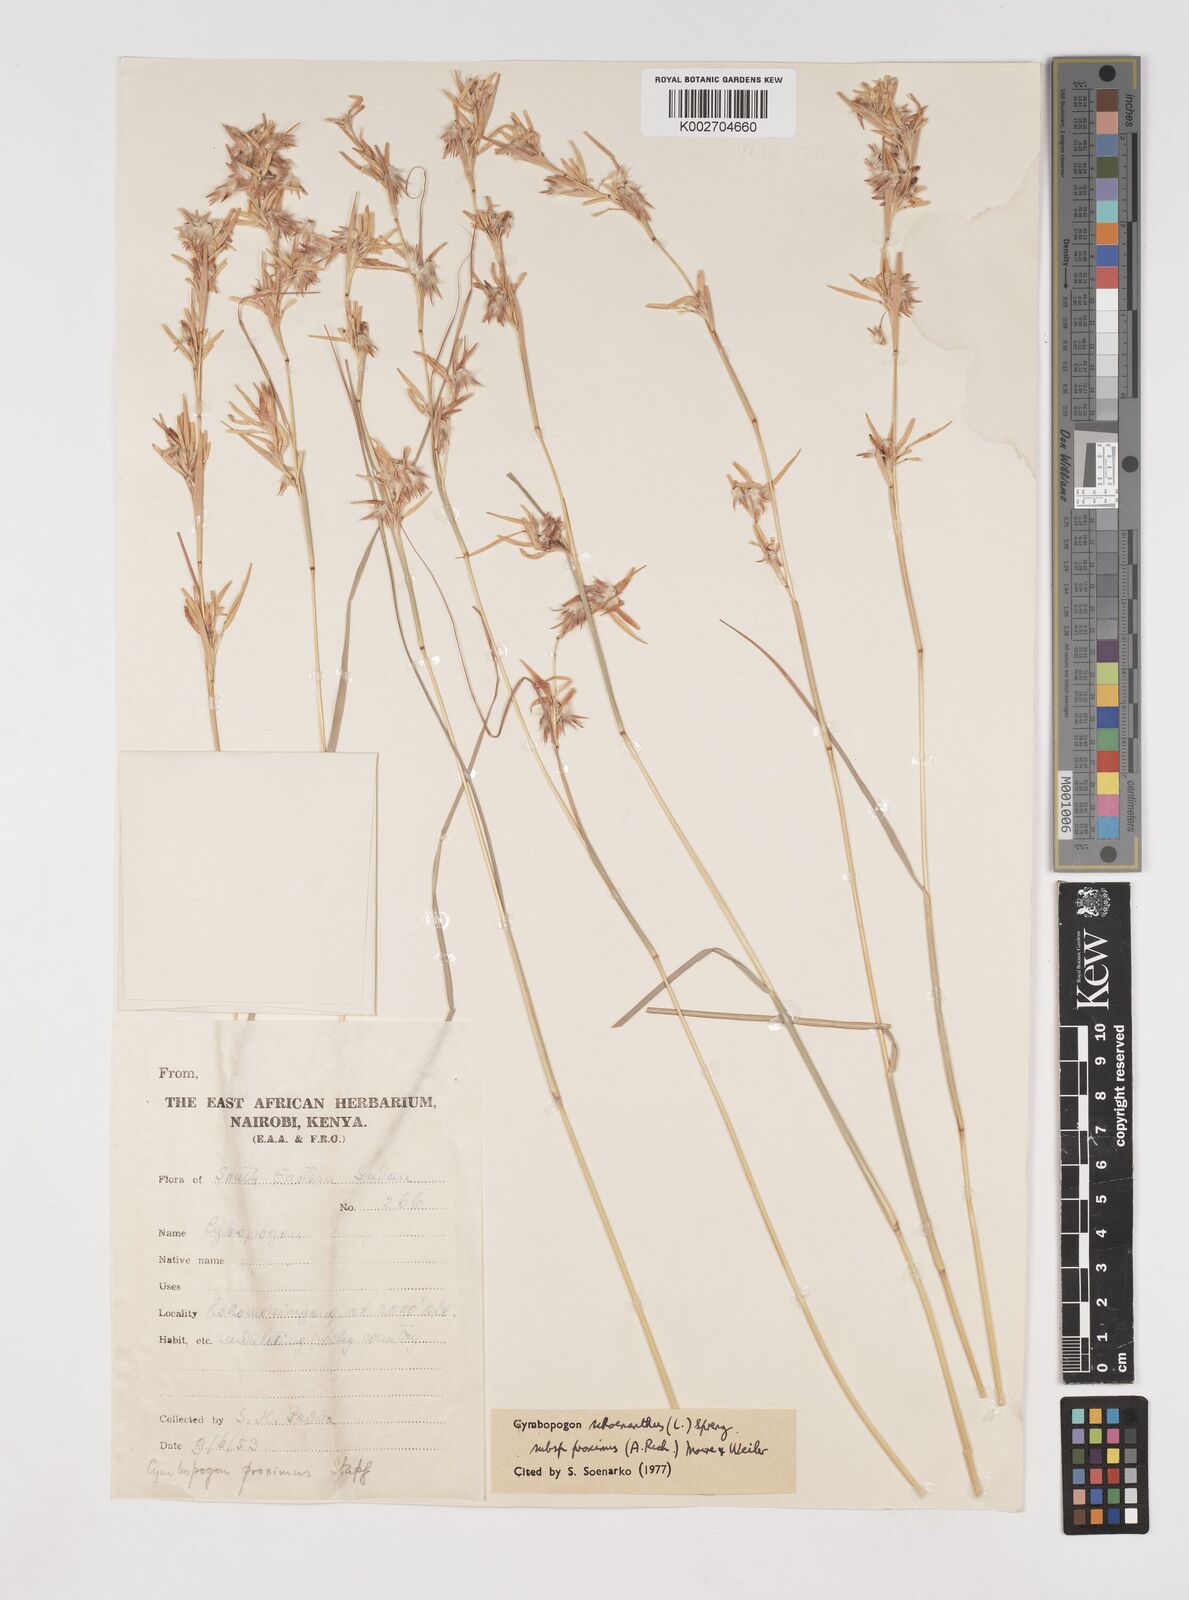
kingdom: Plantae
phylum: Tracheophyta
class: Liliopsida
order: Poales
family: Poaceae
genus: Cymbopogon
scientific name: Cymbopogon schoenanthus
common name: Geranium grass
